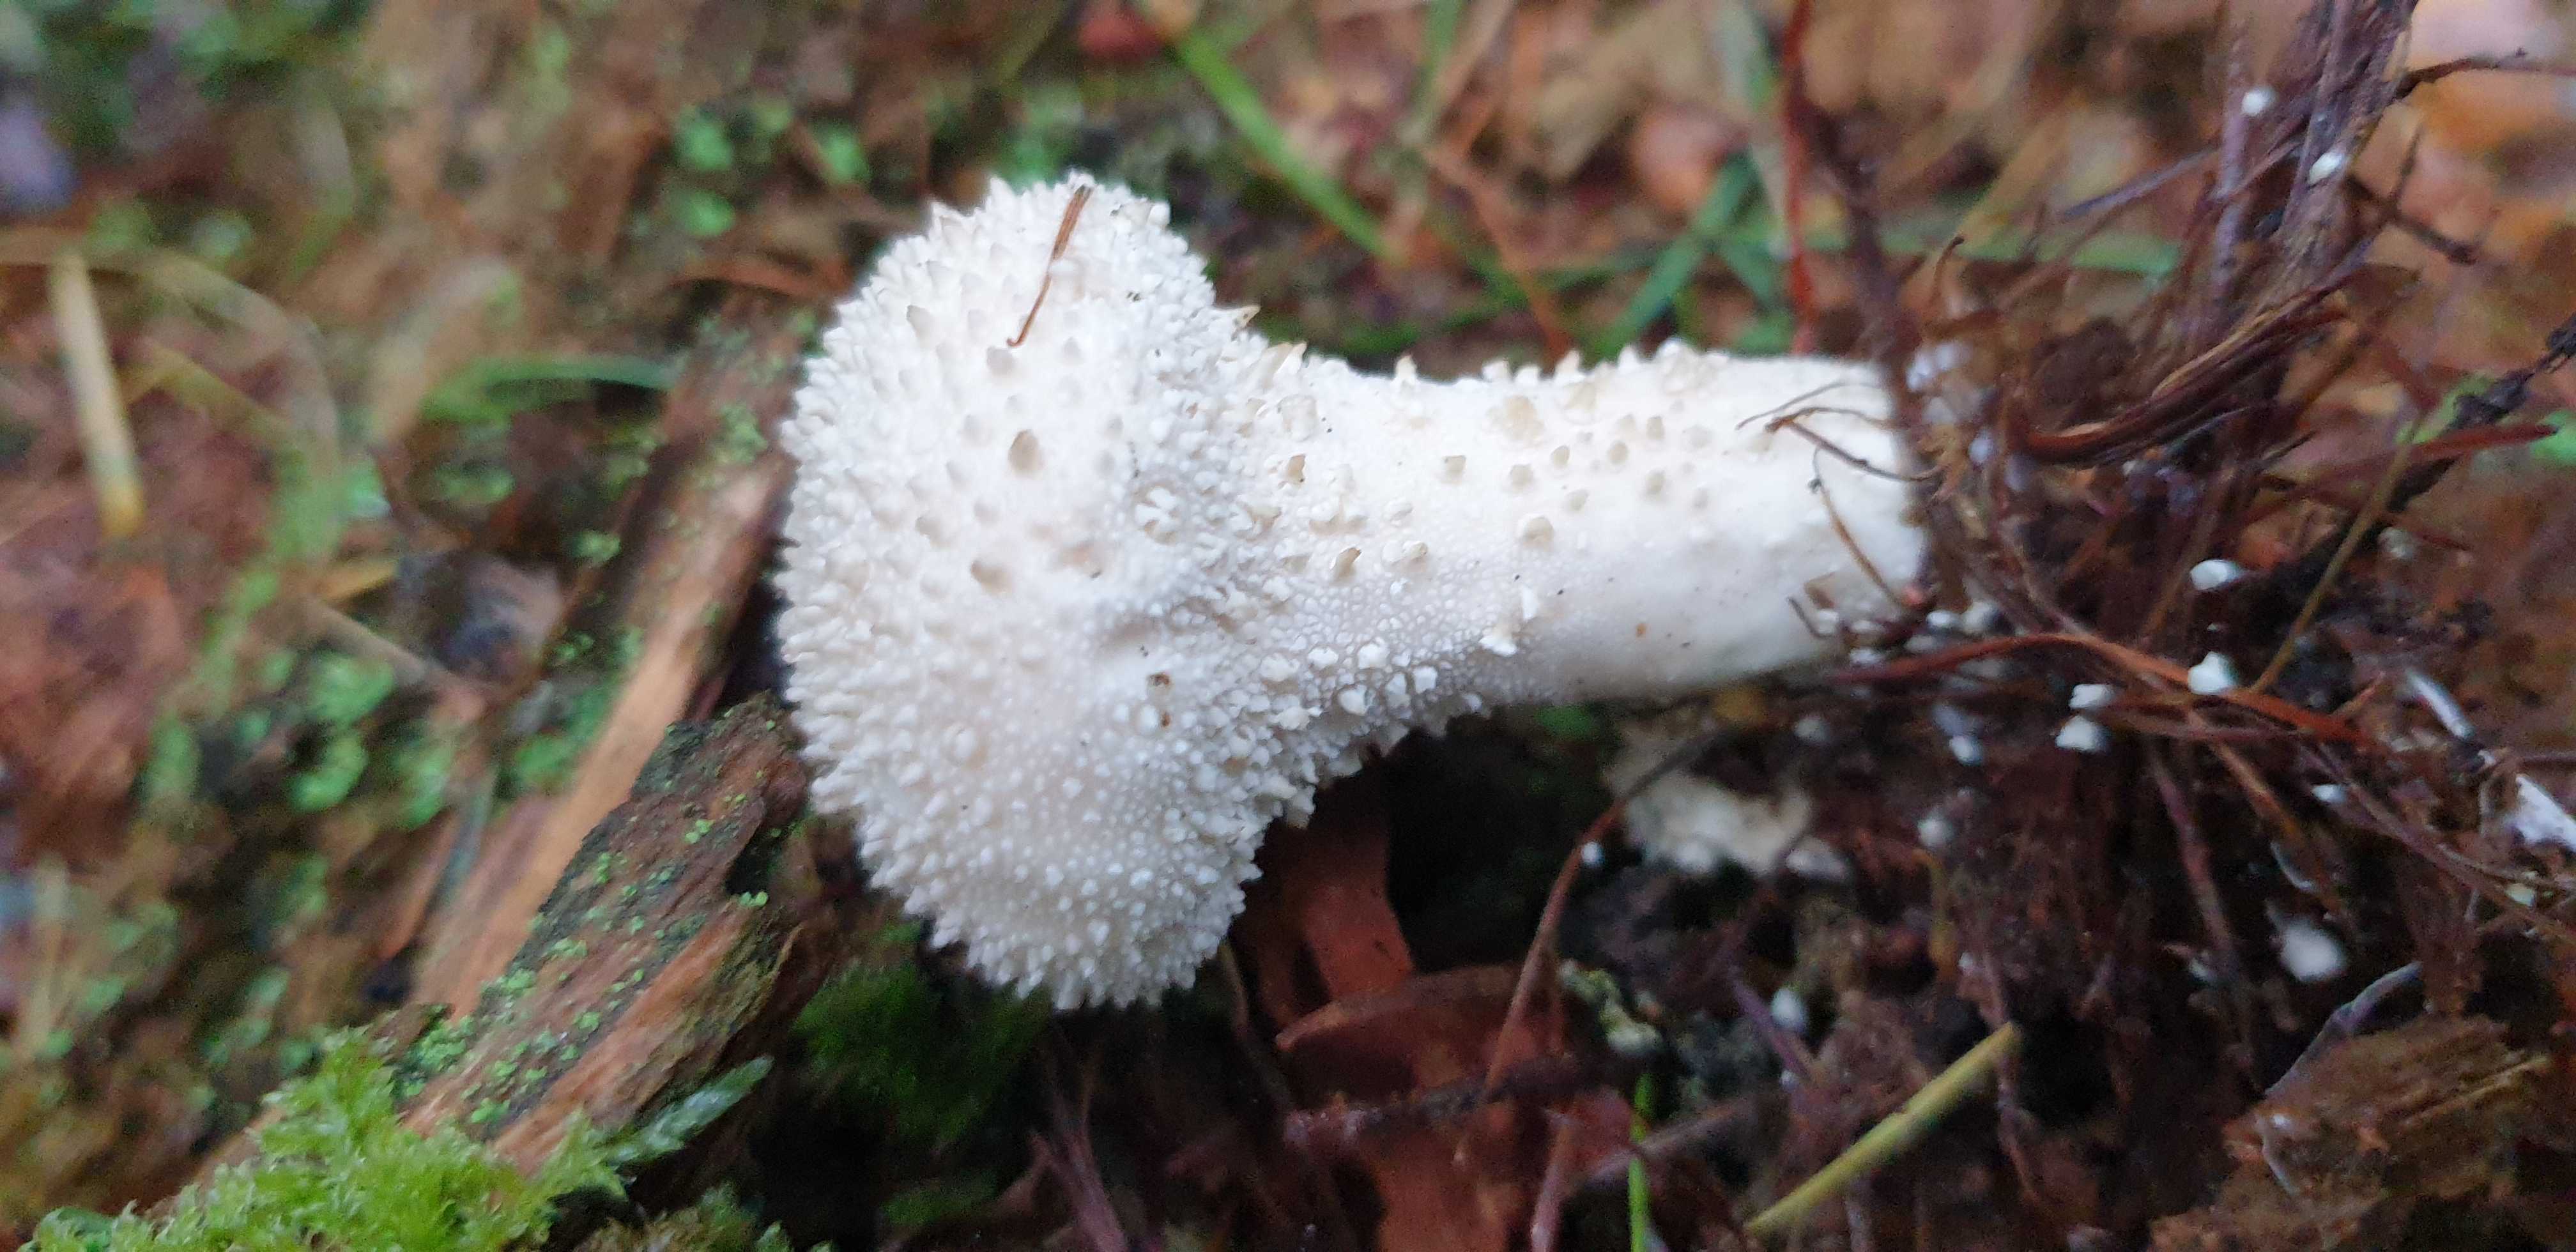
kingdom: Fungi
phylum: Basidiomycota
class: Agaricomycetes
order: Agaricales
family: Lycoperdaceae
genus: Lycoperdon
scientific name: Lycoperdon perlatum
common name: krystal-støvbold
